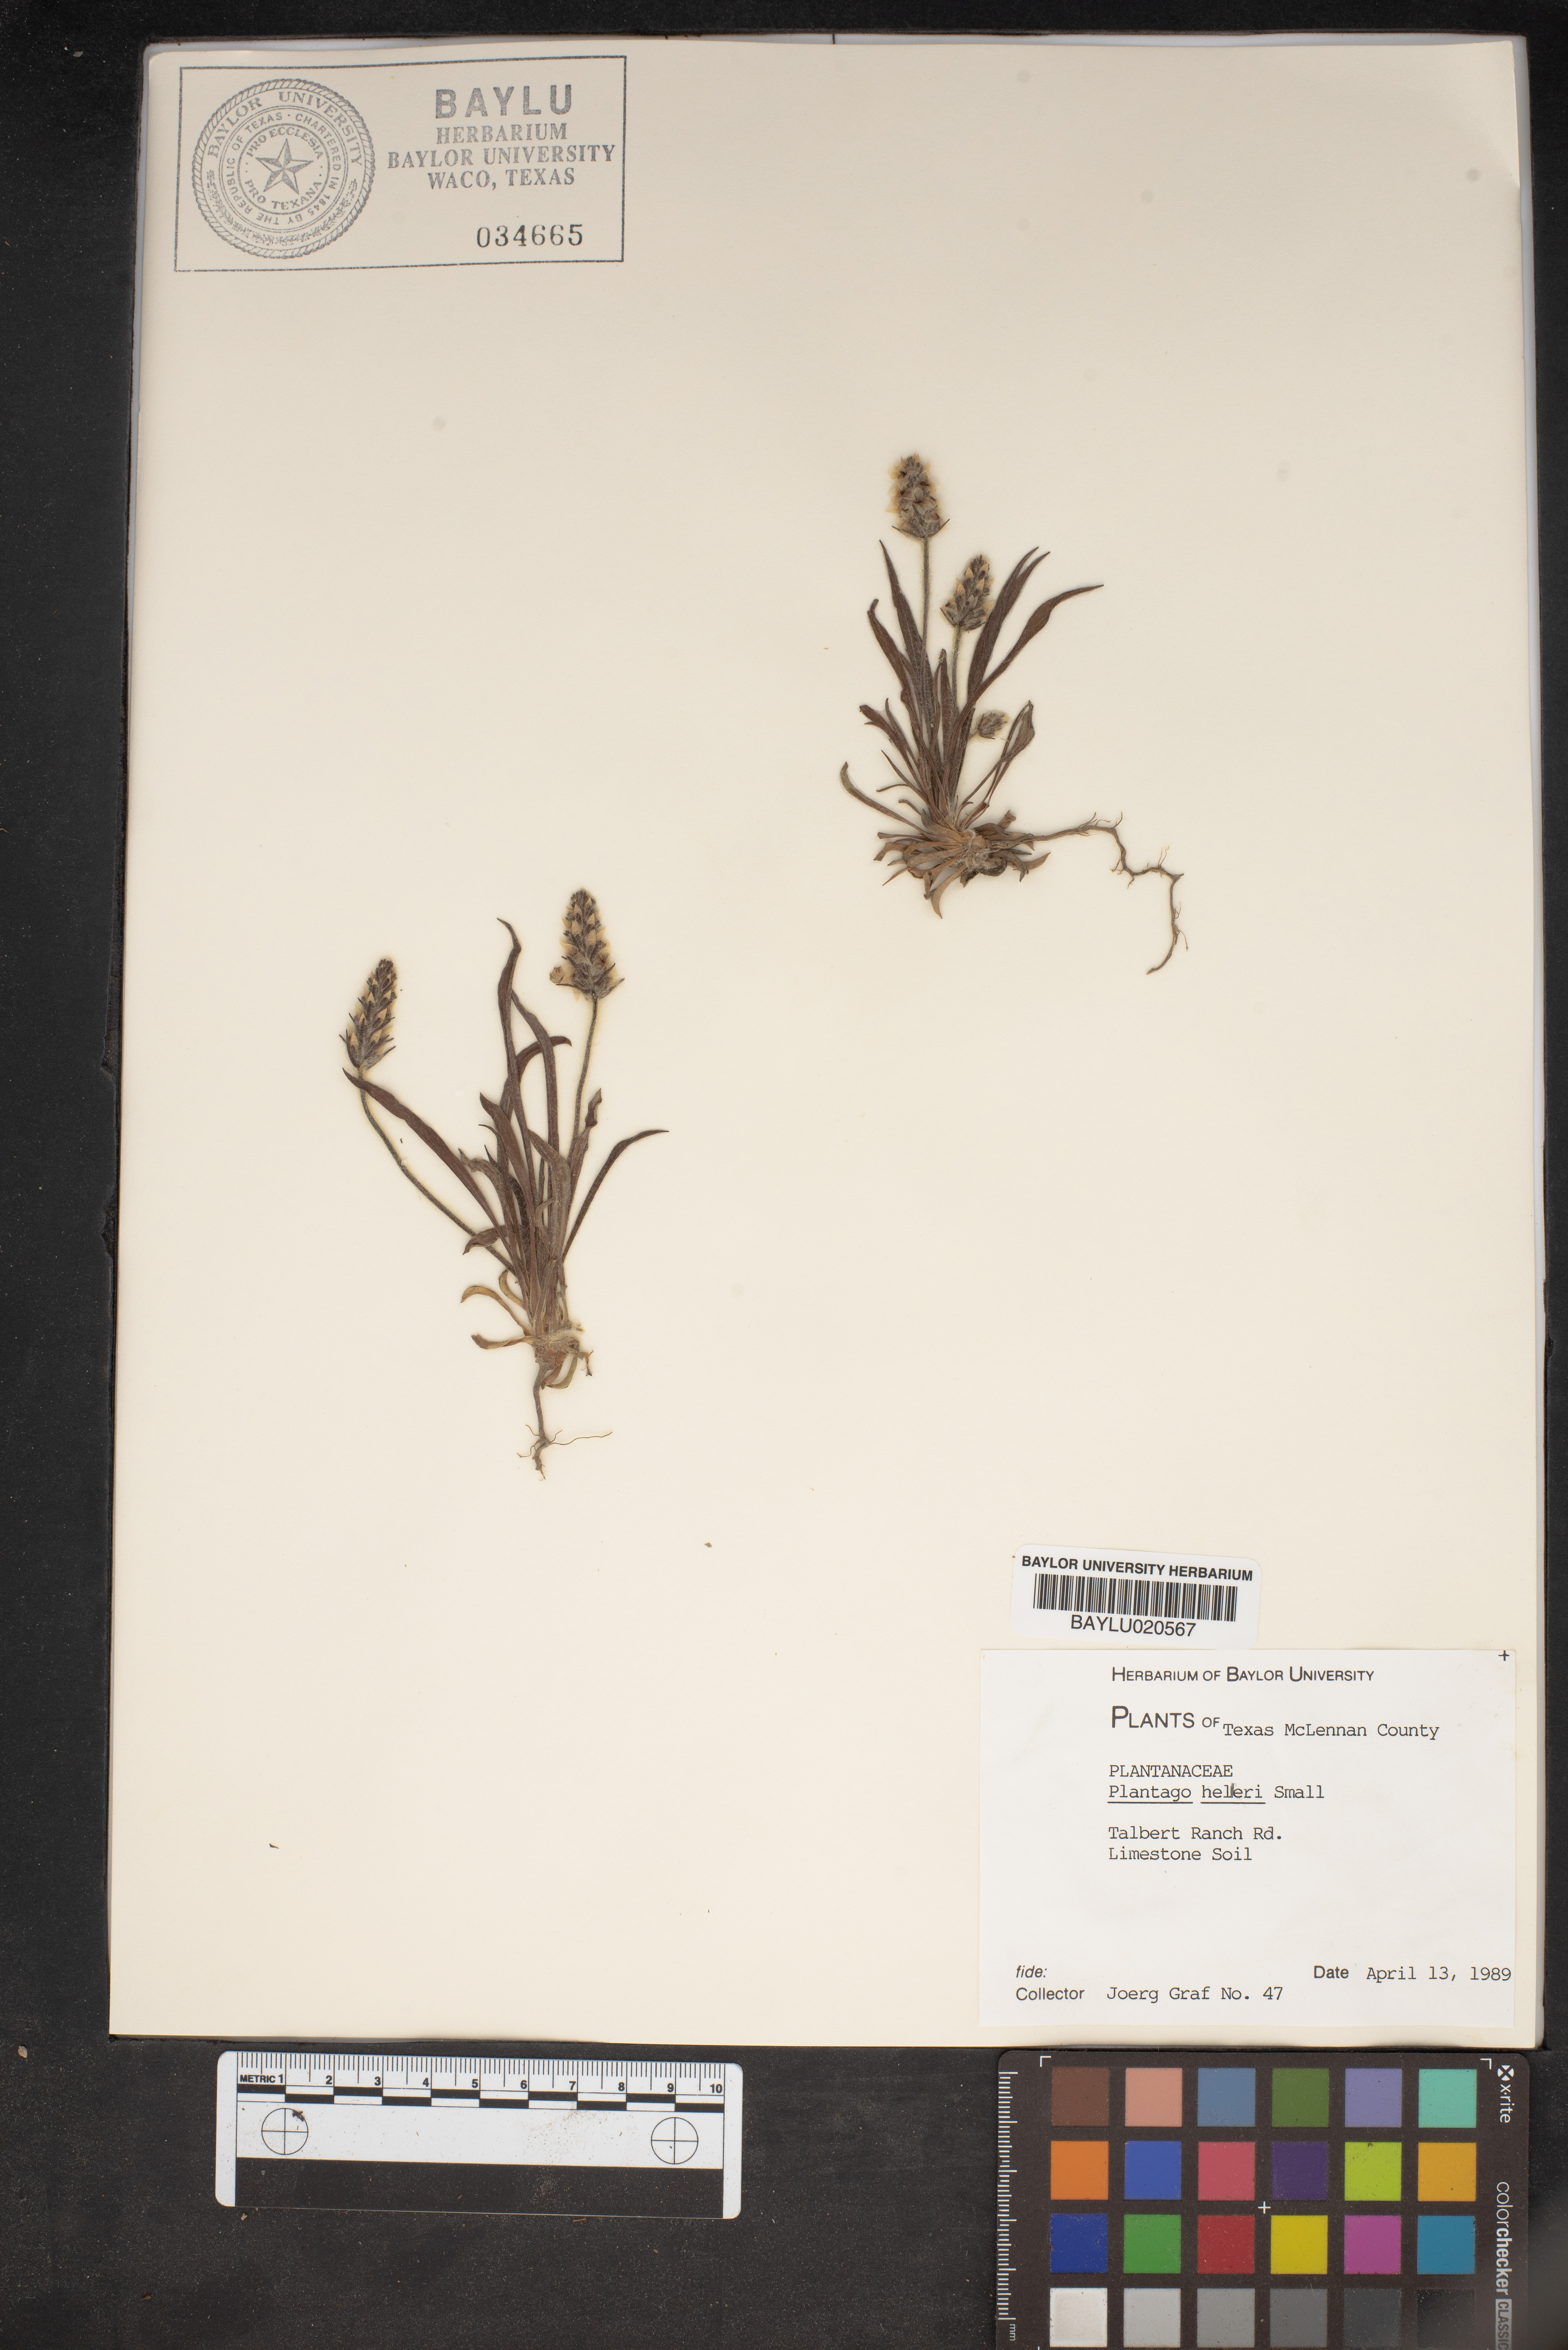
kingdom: Plantae
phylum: Tracheophyta
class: Magnoliopsida
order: Lamiales
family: Plantaginaceae
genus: Plantago
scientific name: Plantago helleri
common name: Heller's plantain
